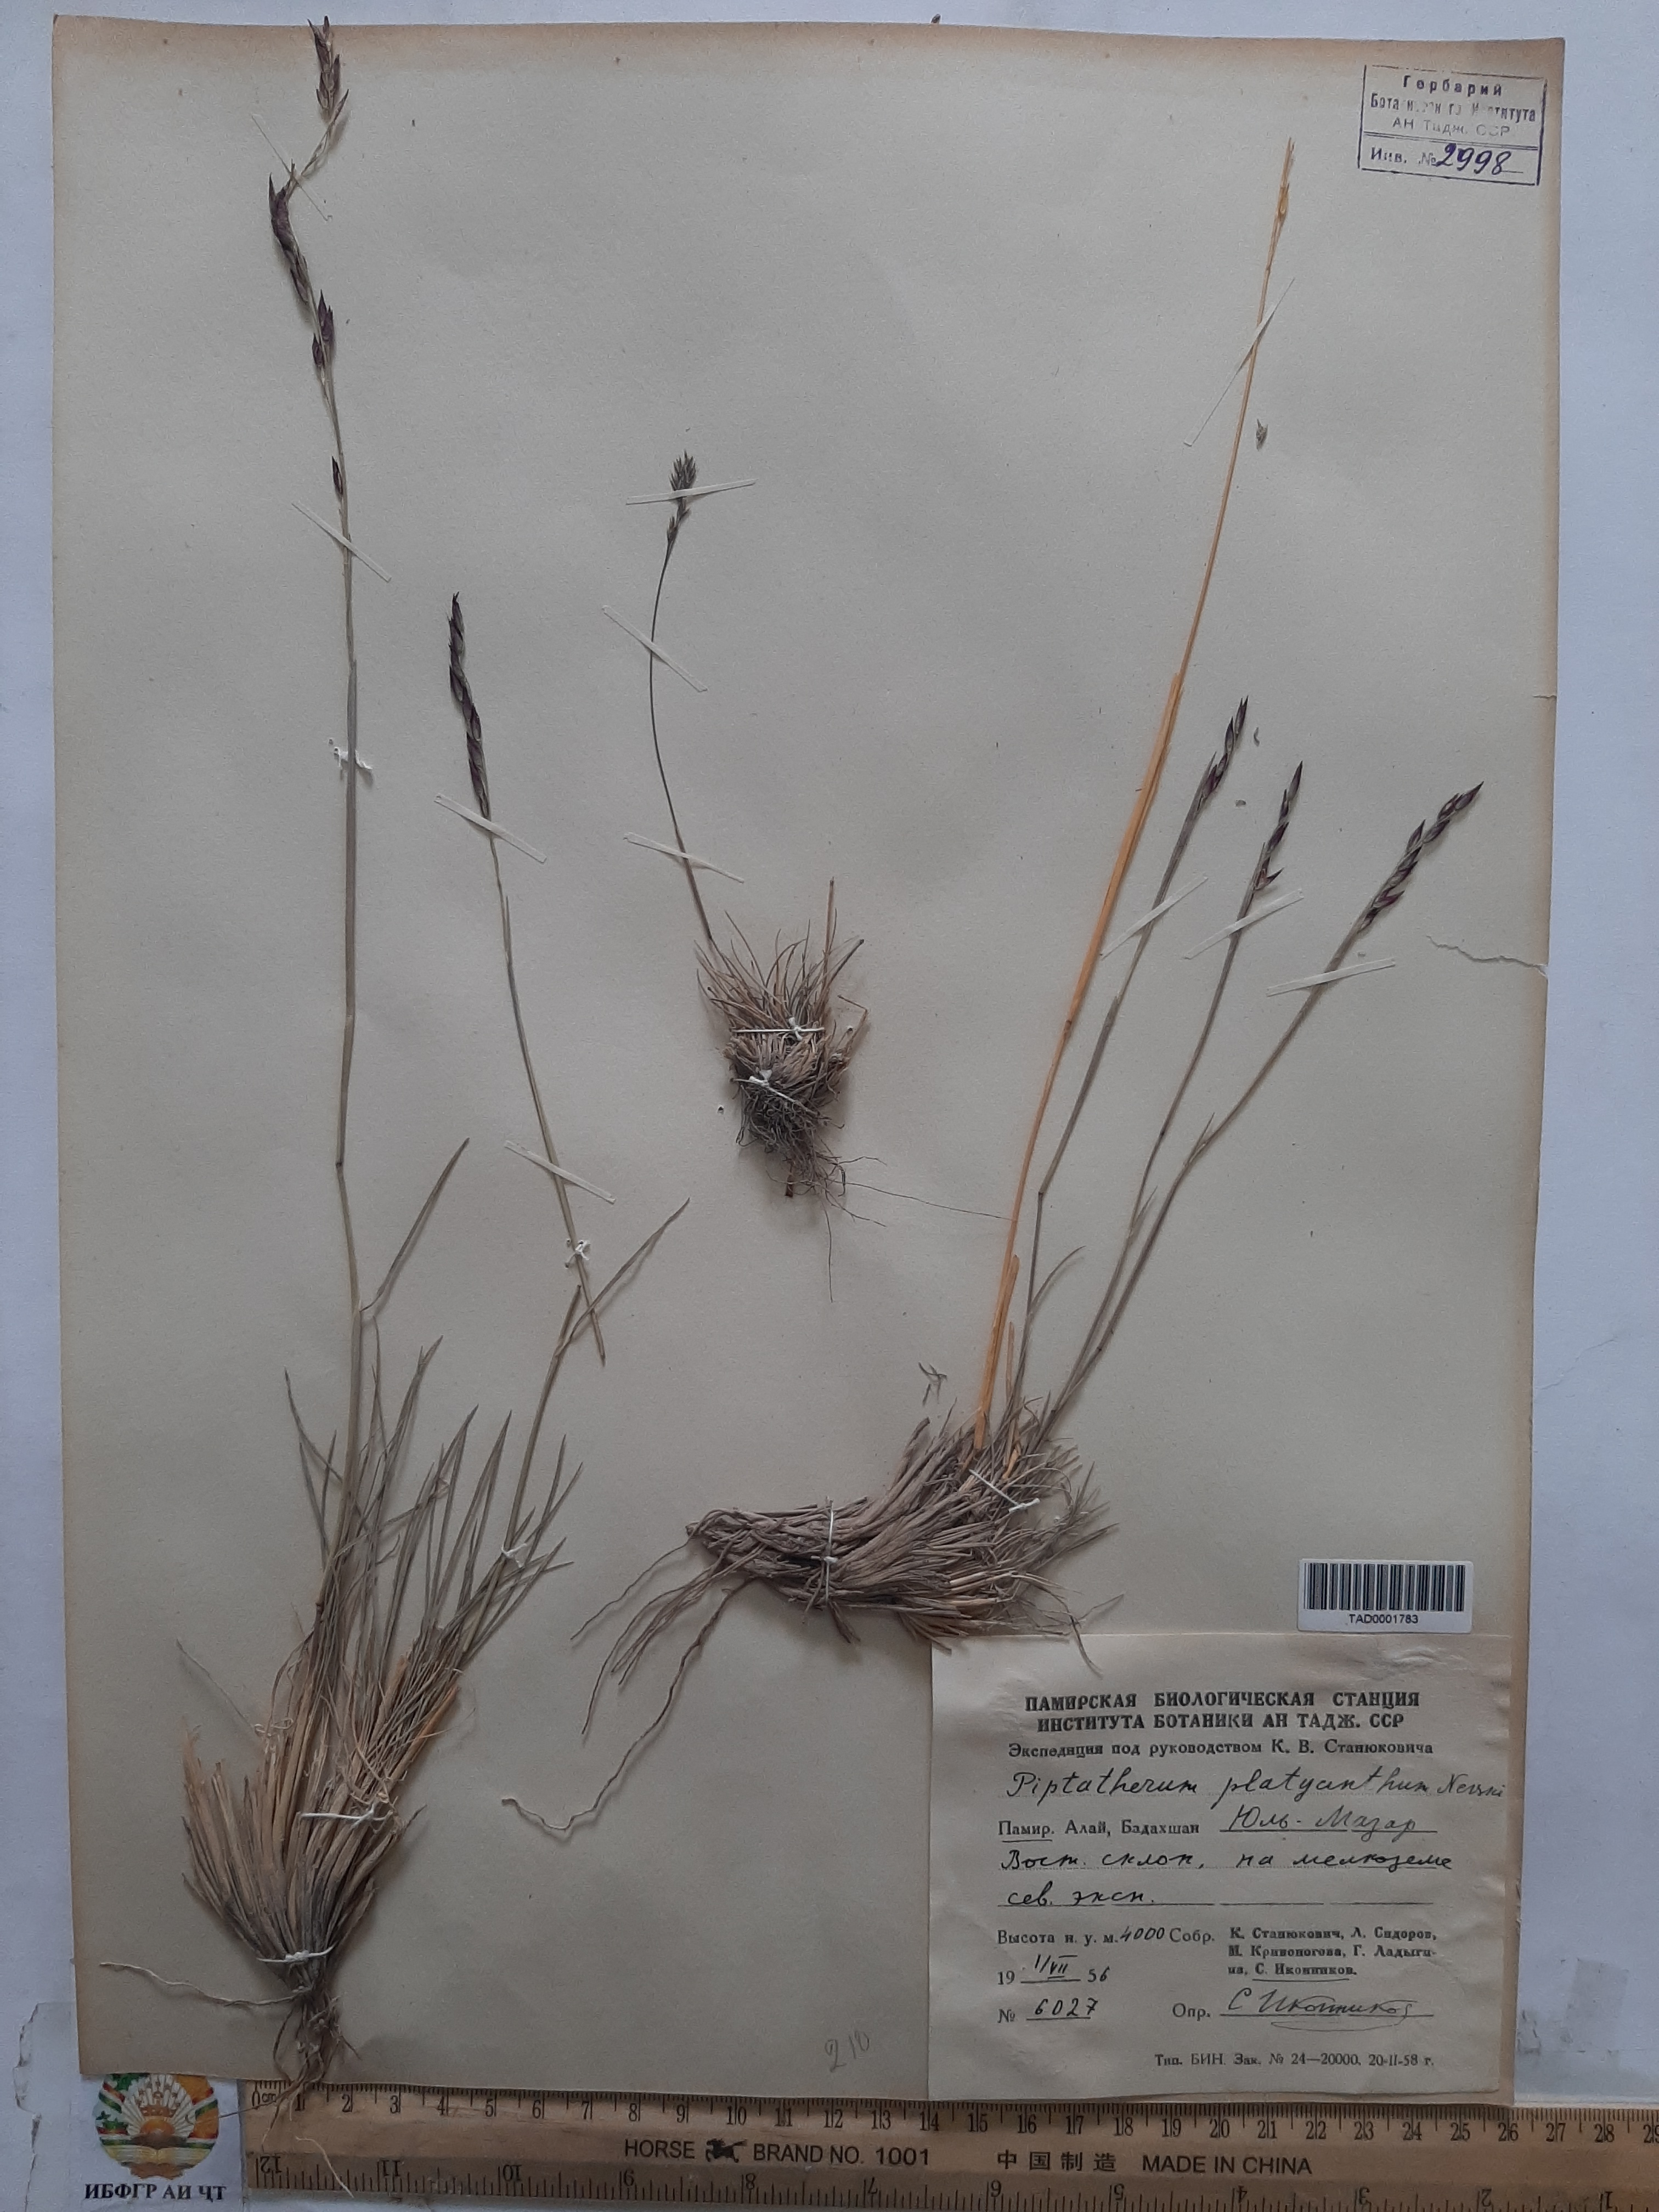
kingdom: Plantae
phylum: Tracheophyta
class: Liliopsida
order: Poales
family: Poaceae
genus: Piptatherum
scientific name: Piptatherum platyanthum
